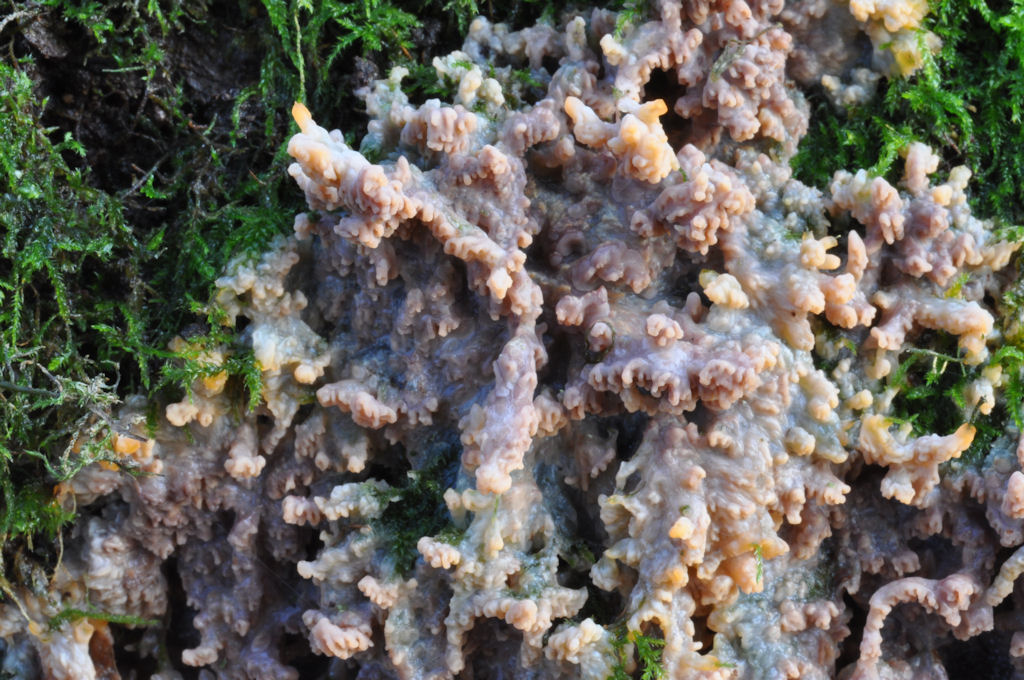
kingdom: Fungi
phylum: Basidiomycota
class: Agaricomycetes
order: Polyporales
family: Meruliaceae
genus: Phlebia
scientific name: Phlebia rufa
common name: ege-åresvamp
